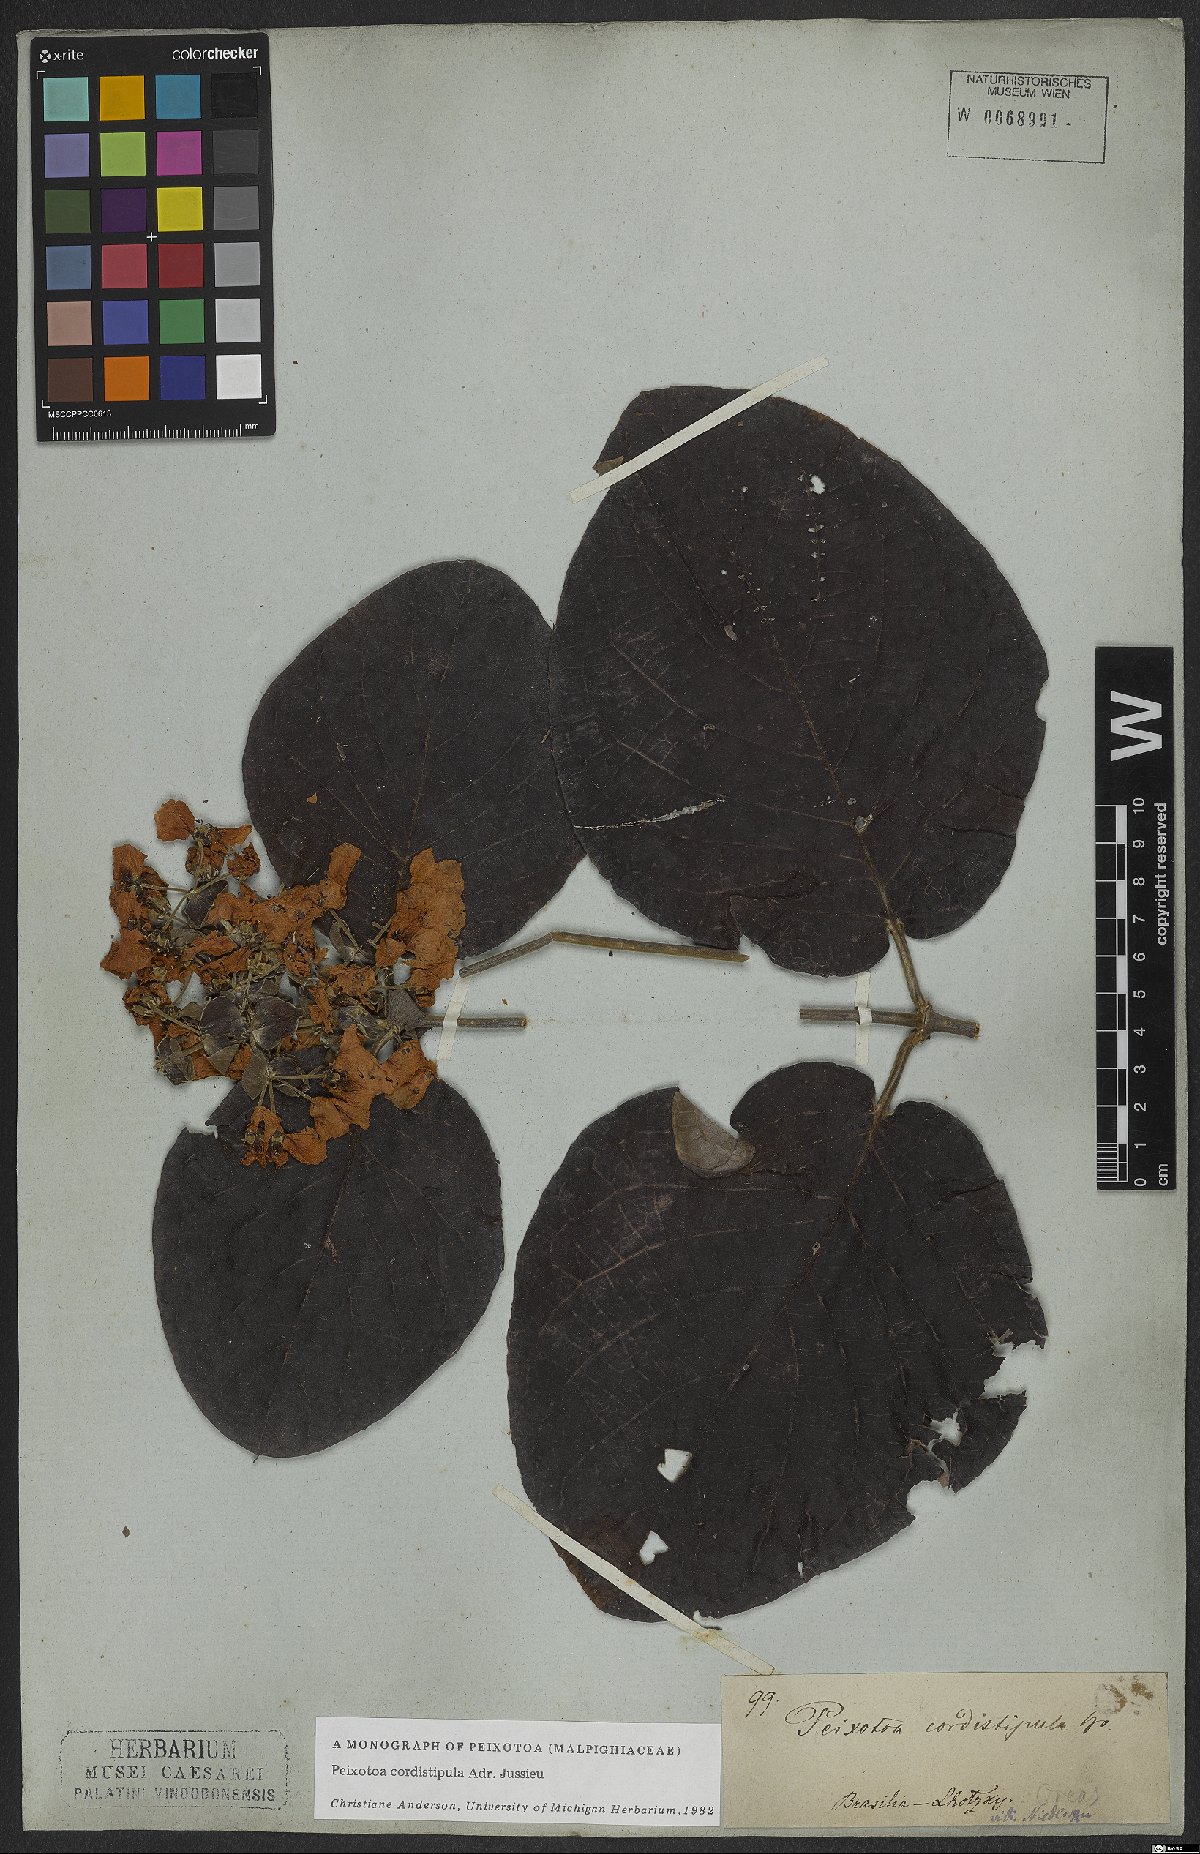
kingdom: Plantae
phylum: Tracheophyta
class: Magnoliopsida
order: Malpighiales
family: Malpighiaceae
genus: Peixotoa
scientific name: Peixotoa cordistipula
